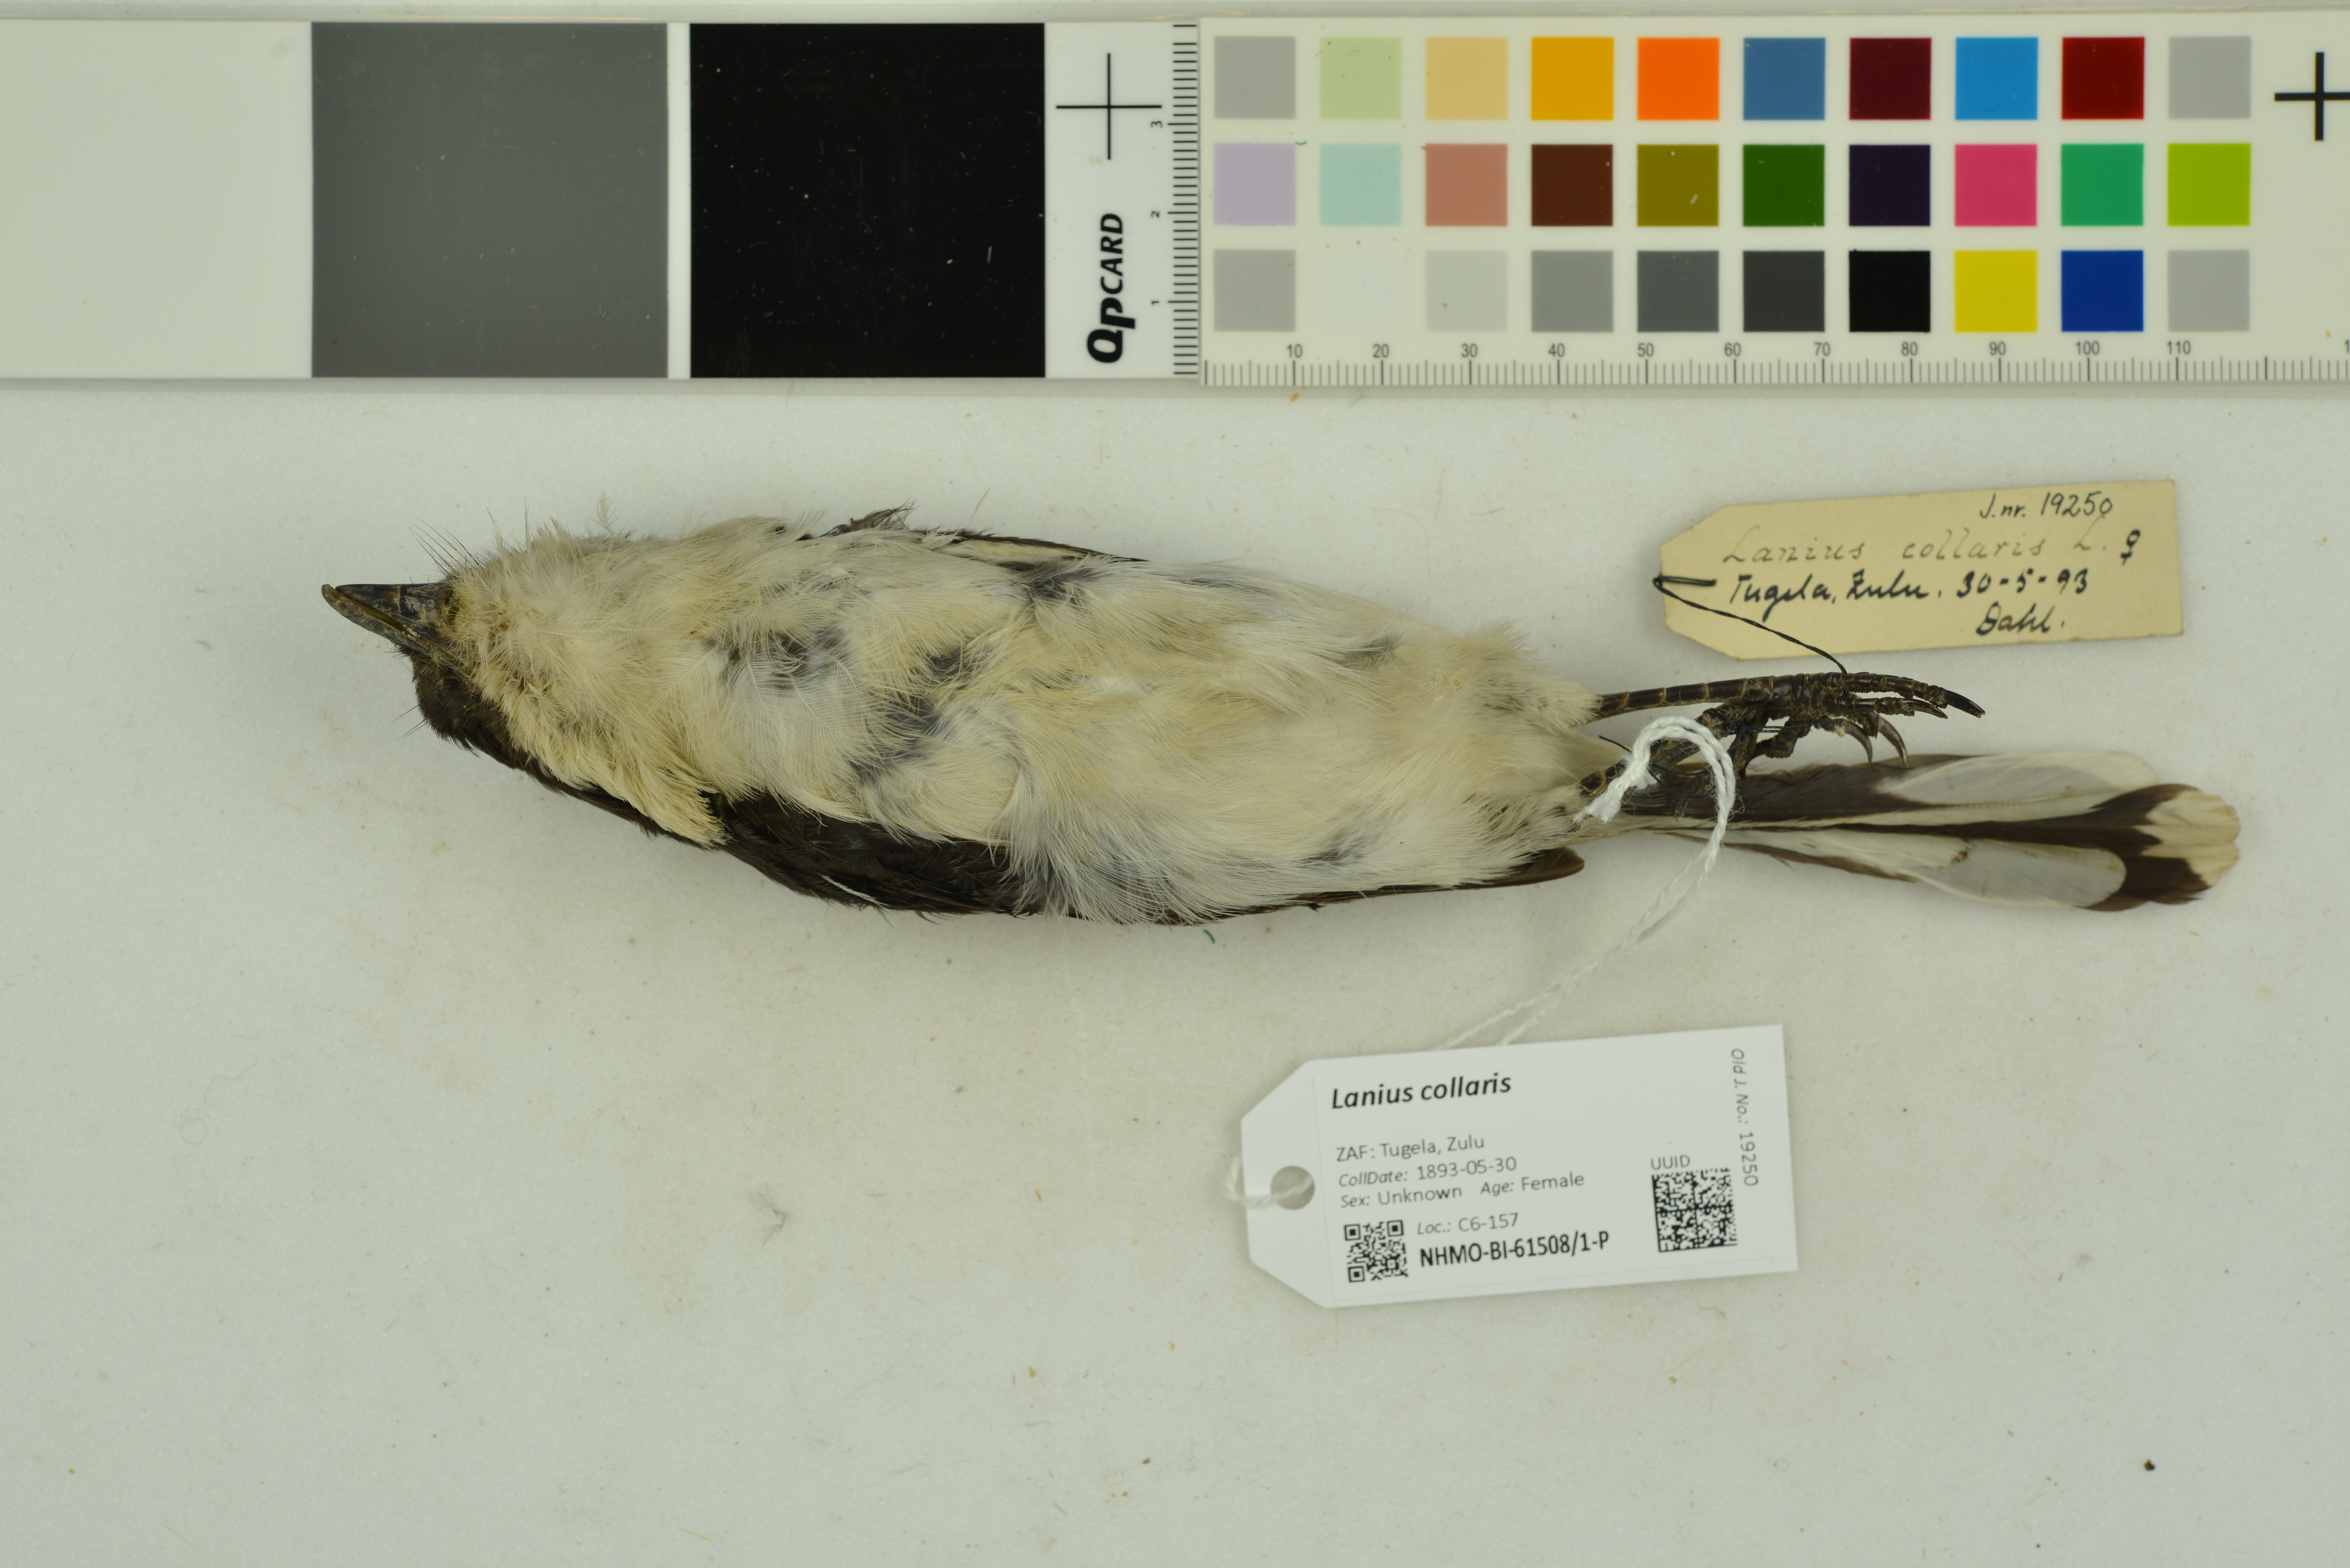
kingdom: Animalia
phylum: Chordata
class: Aves
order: Passeriformes
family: Laniidae
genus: Lanius
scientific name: Lanius collaris
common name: Southern fiscal
